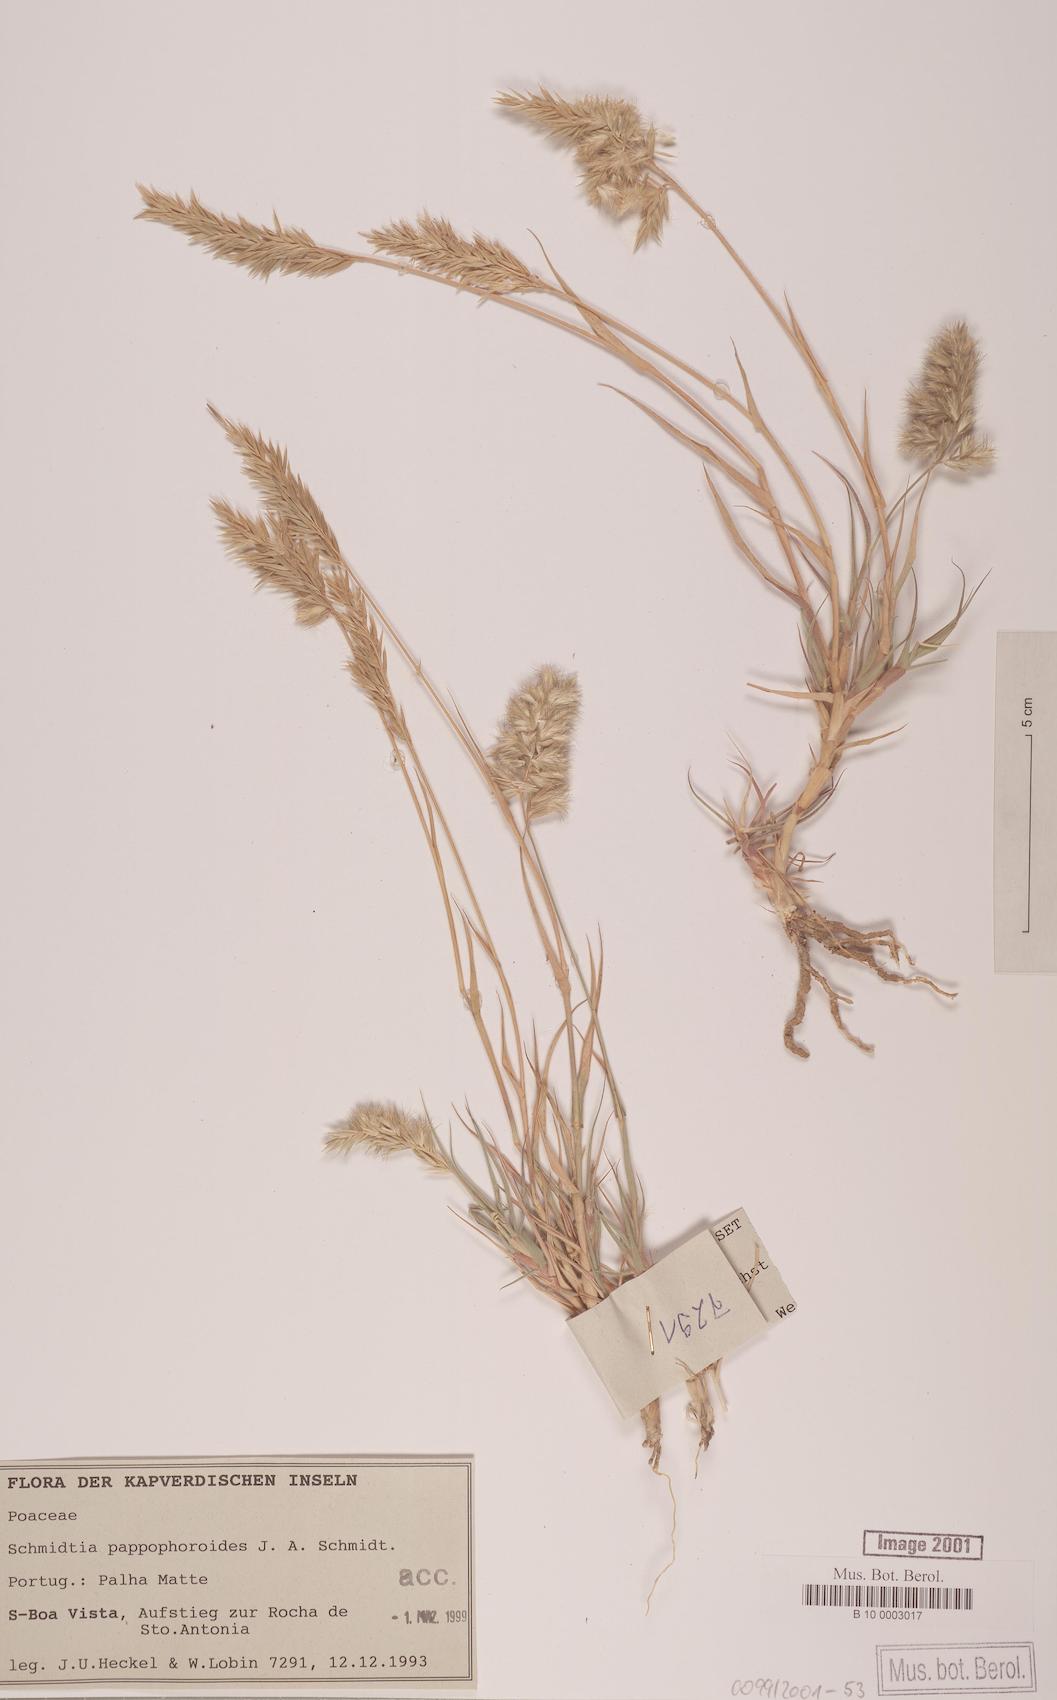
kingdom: Plantae
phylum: Tracheophyta
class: Liliopsida
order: Poales
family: Poaceae
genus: Schmidtia
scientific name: Schmidtia pappophoroides
